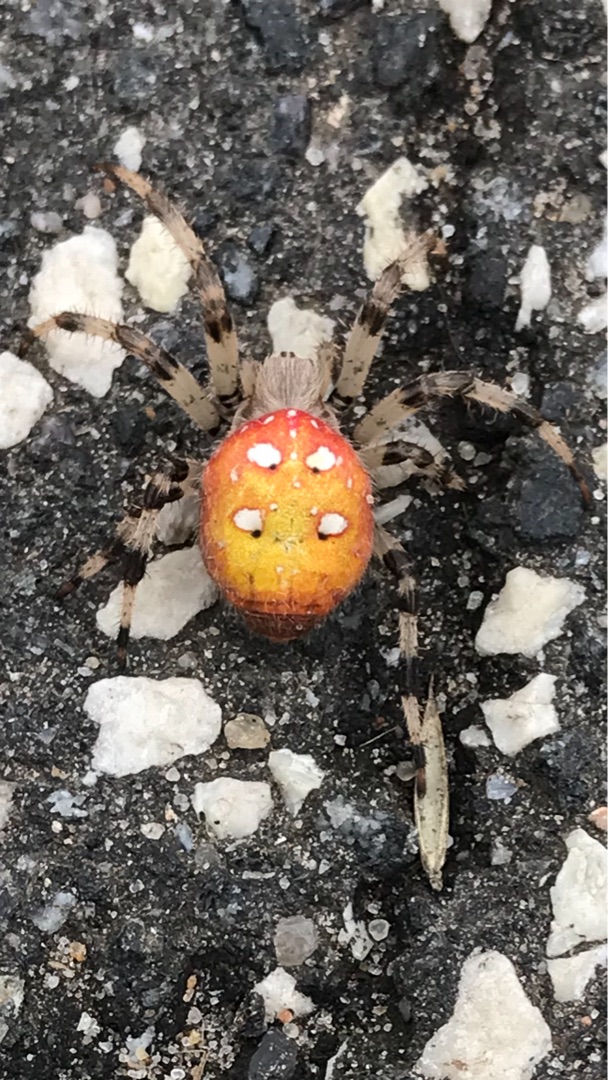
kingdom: Animalia
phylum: Arthropoda
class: Arachnida
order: Araneae
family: Araneidae
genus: Araneus
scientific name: Araneus quadratus
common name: Kvadratedderkop
